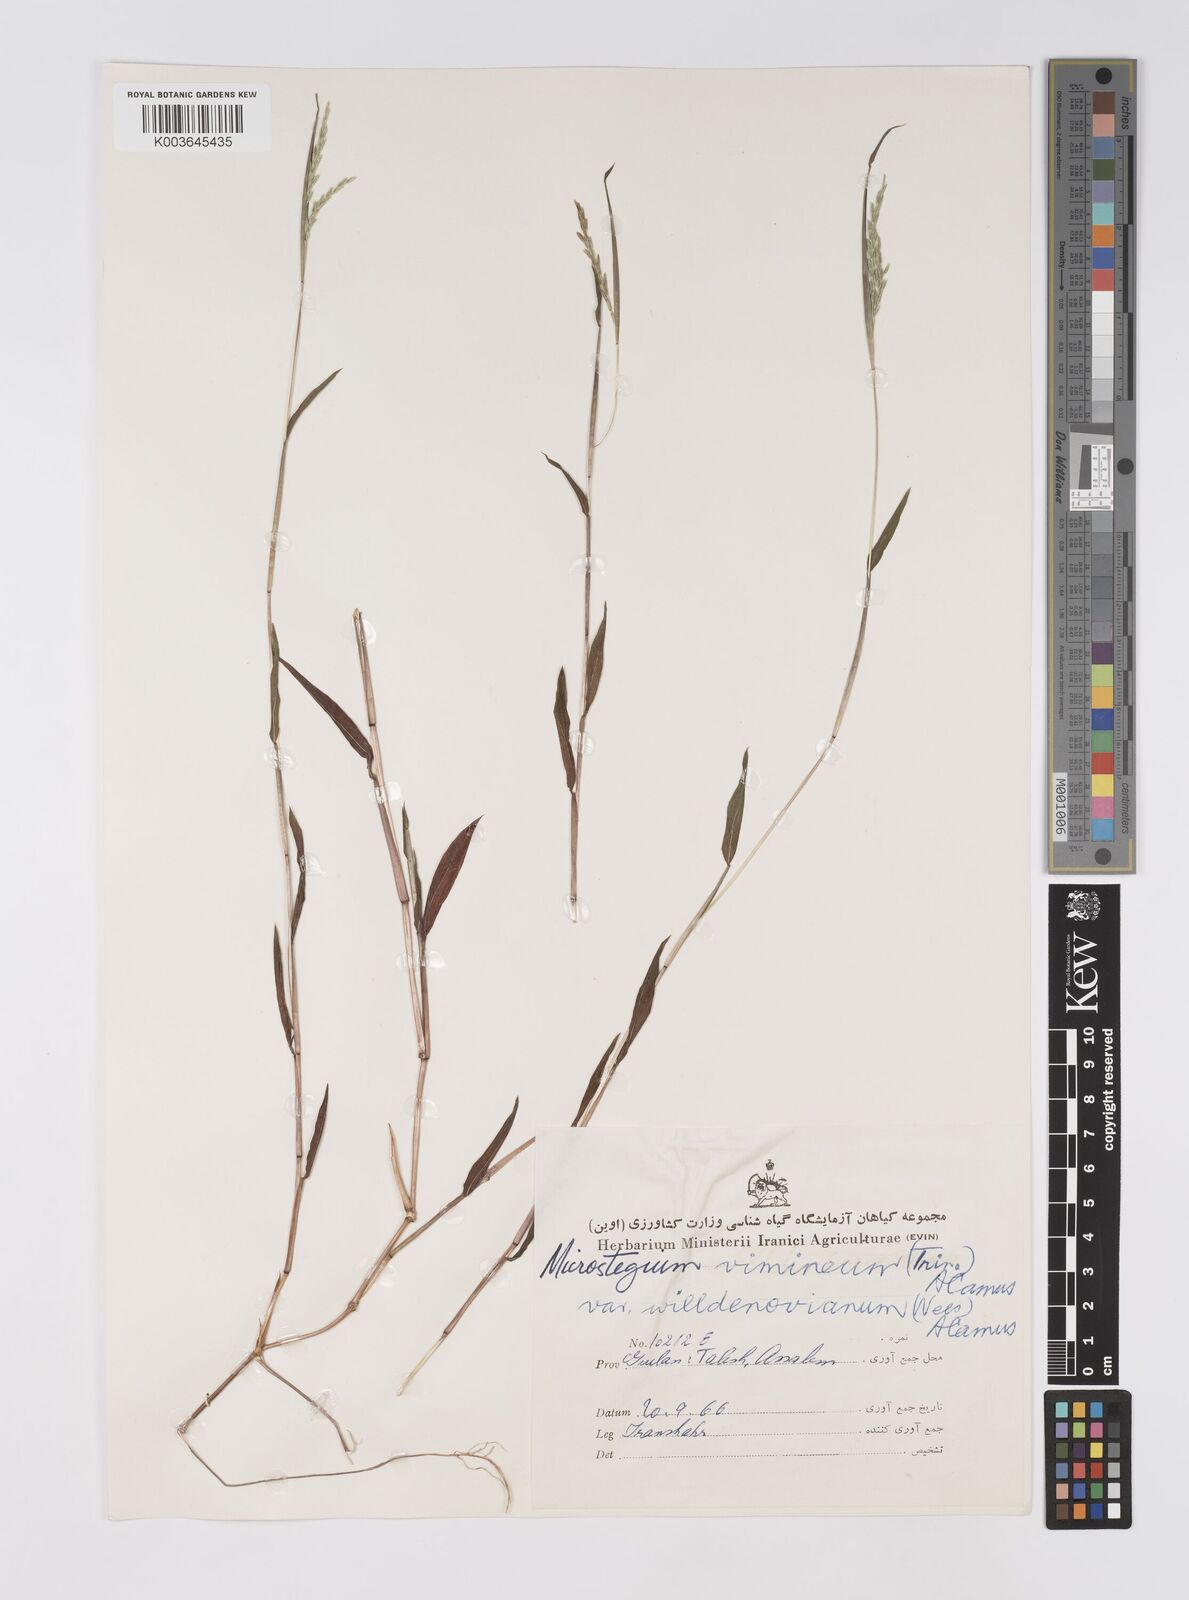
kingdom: Plantae
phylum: Tracheophyta
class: Liliopsida
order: Poales
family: Poaceae
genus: Microstegium
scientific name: Microstegium vimineum
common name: Japanese stiltgrass
